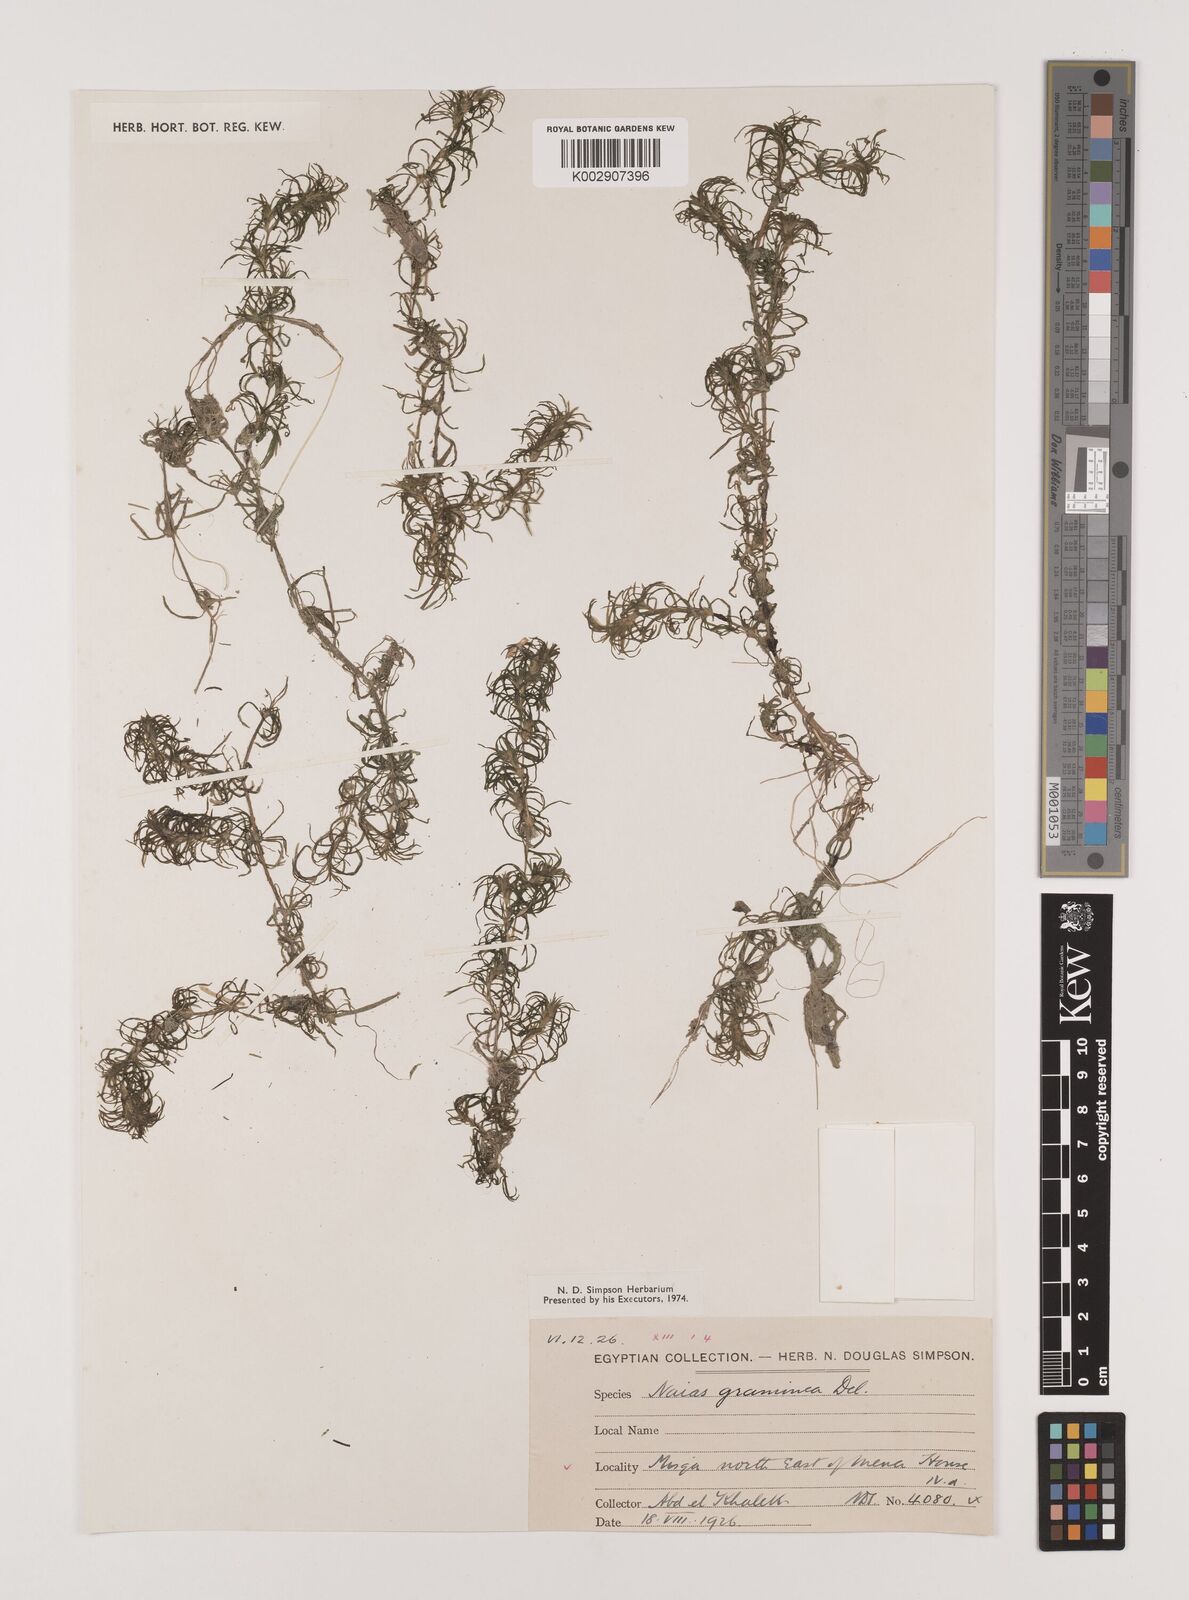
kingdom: Plantae
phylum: Tracheophyta
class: Liliopsida
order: Alismatales
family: Hydrocharitaceae
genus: Najas
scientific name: Najas graminea
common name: Ricefield waternymph
